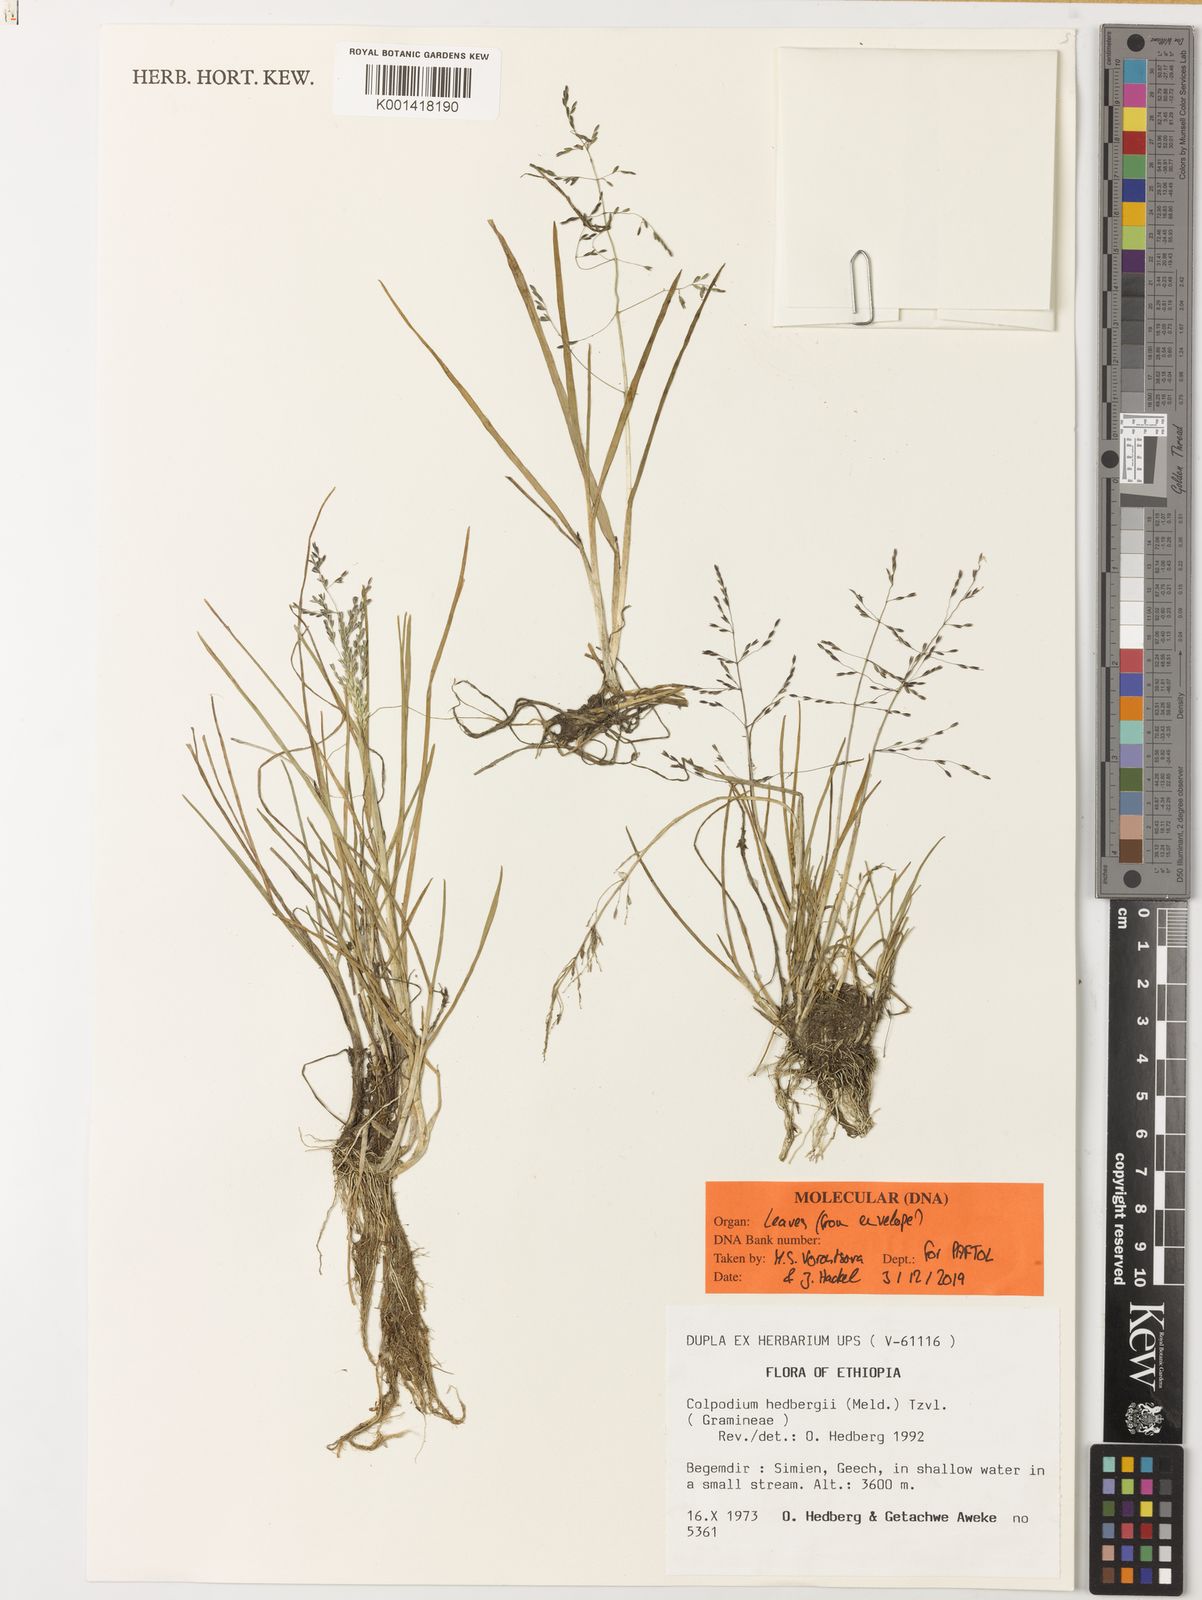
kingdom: Plantae
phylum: Tracheophyta
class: Liliopsida
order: Poales
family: Poaceae
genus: Colpodium
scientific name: Colpodium hedbergii
